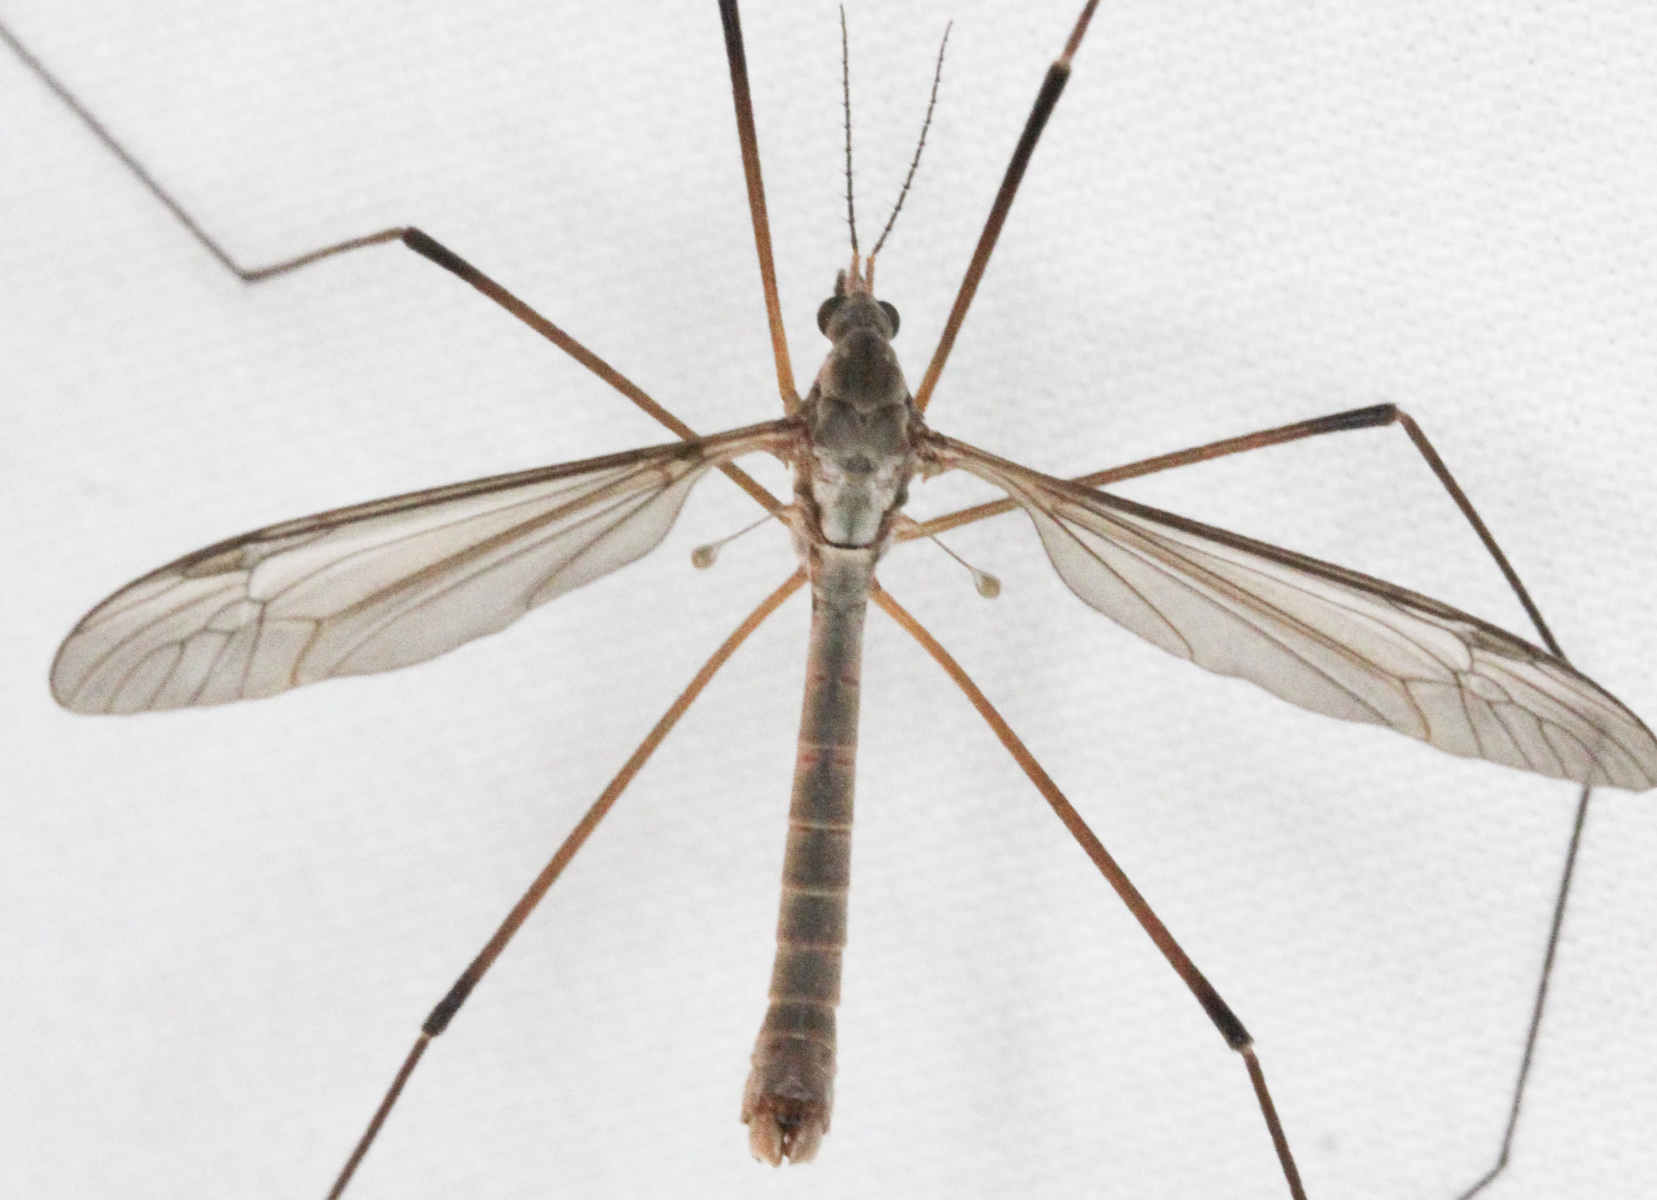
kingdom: Animalia
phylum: Arthropoda
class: Insecta
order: Diptera
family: Tipulidae
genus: Tipula
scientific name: Tipula paludosa
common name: European cranefly
